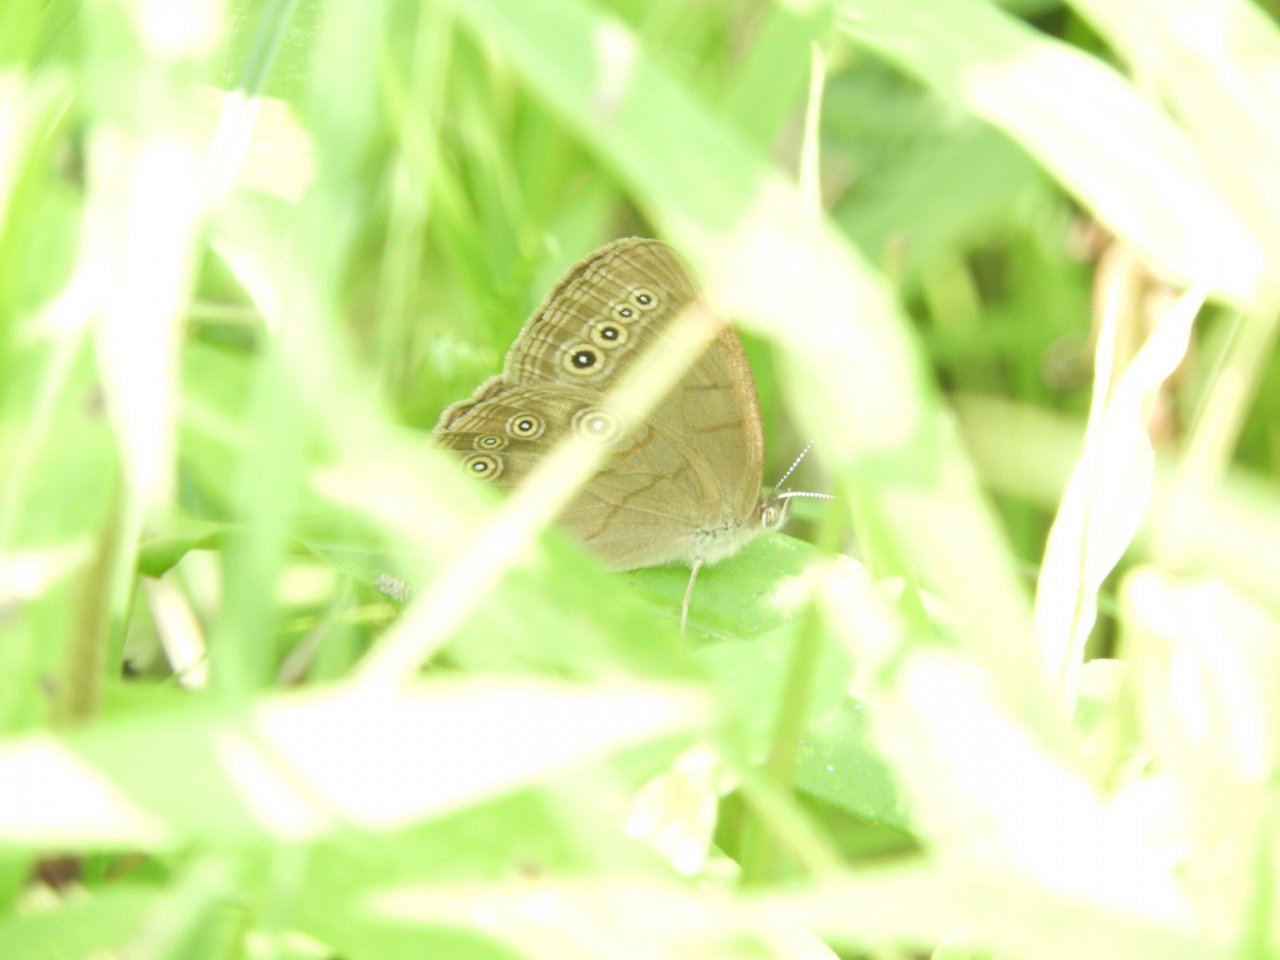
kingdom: Animalia
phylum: Arthropoda
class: Insecta
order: Lepidoptera
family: Nymphalidae
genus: Lethe
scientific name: Lethe eurydice
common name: Eyed Brown
